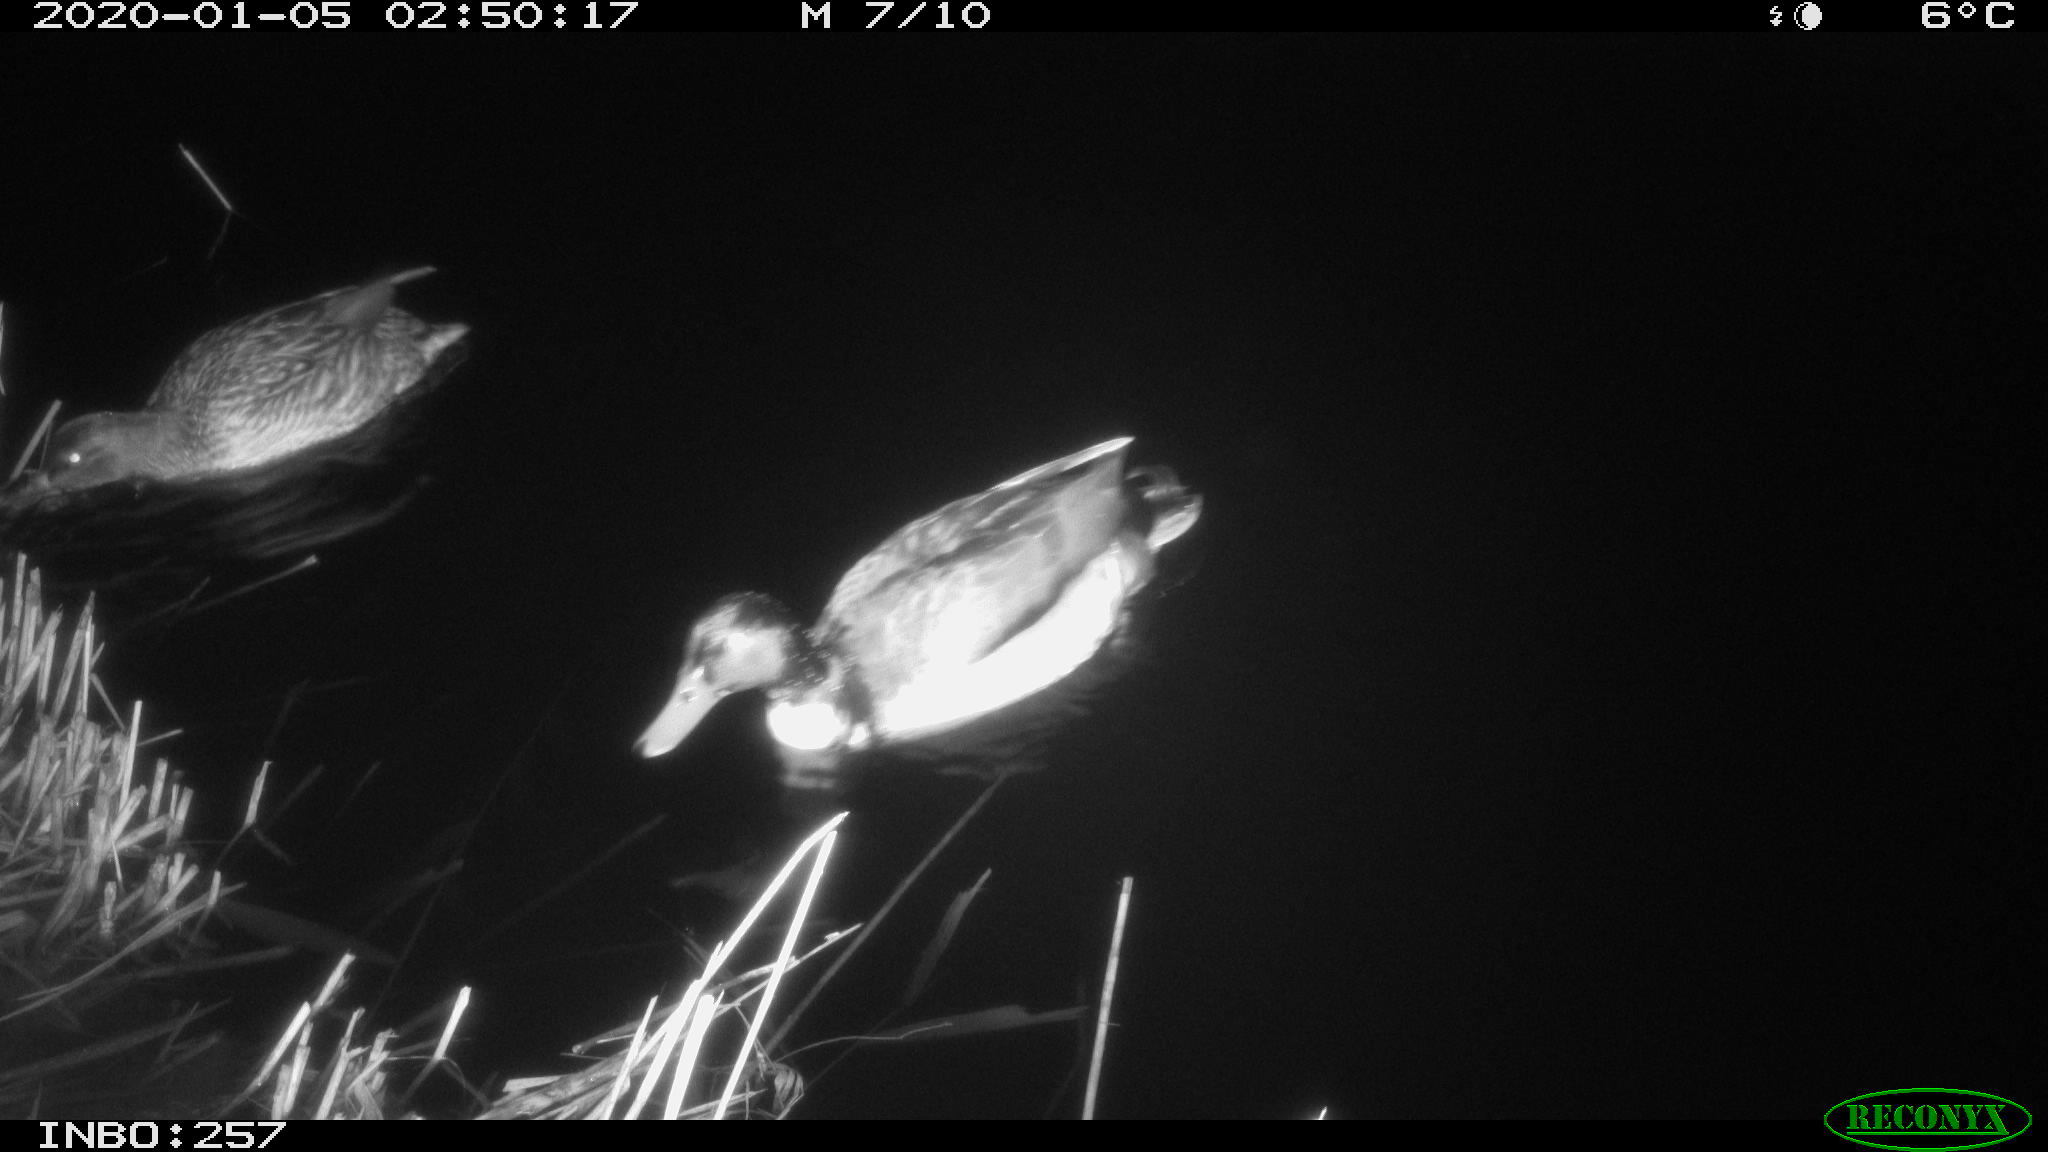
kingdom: Animalia
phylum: Chordata
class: Aves
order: Anseriformes
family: Anatidae
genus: Anas
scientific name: Anas platyrhynchos
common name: Mallard
